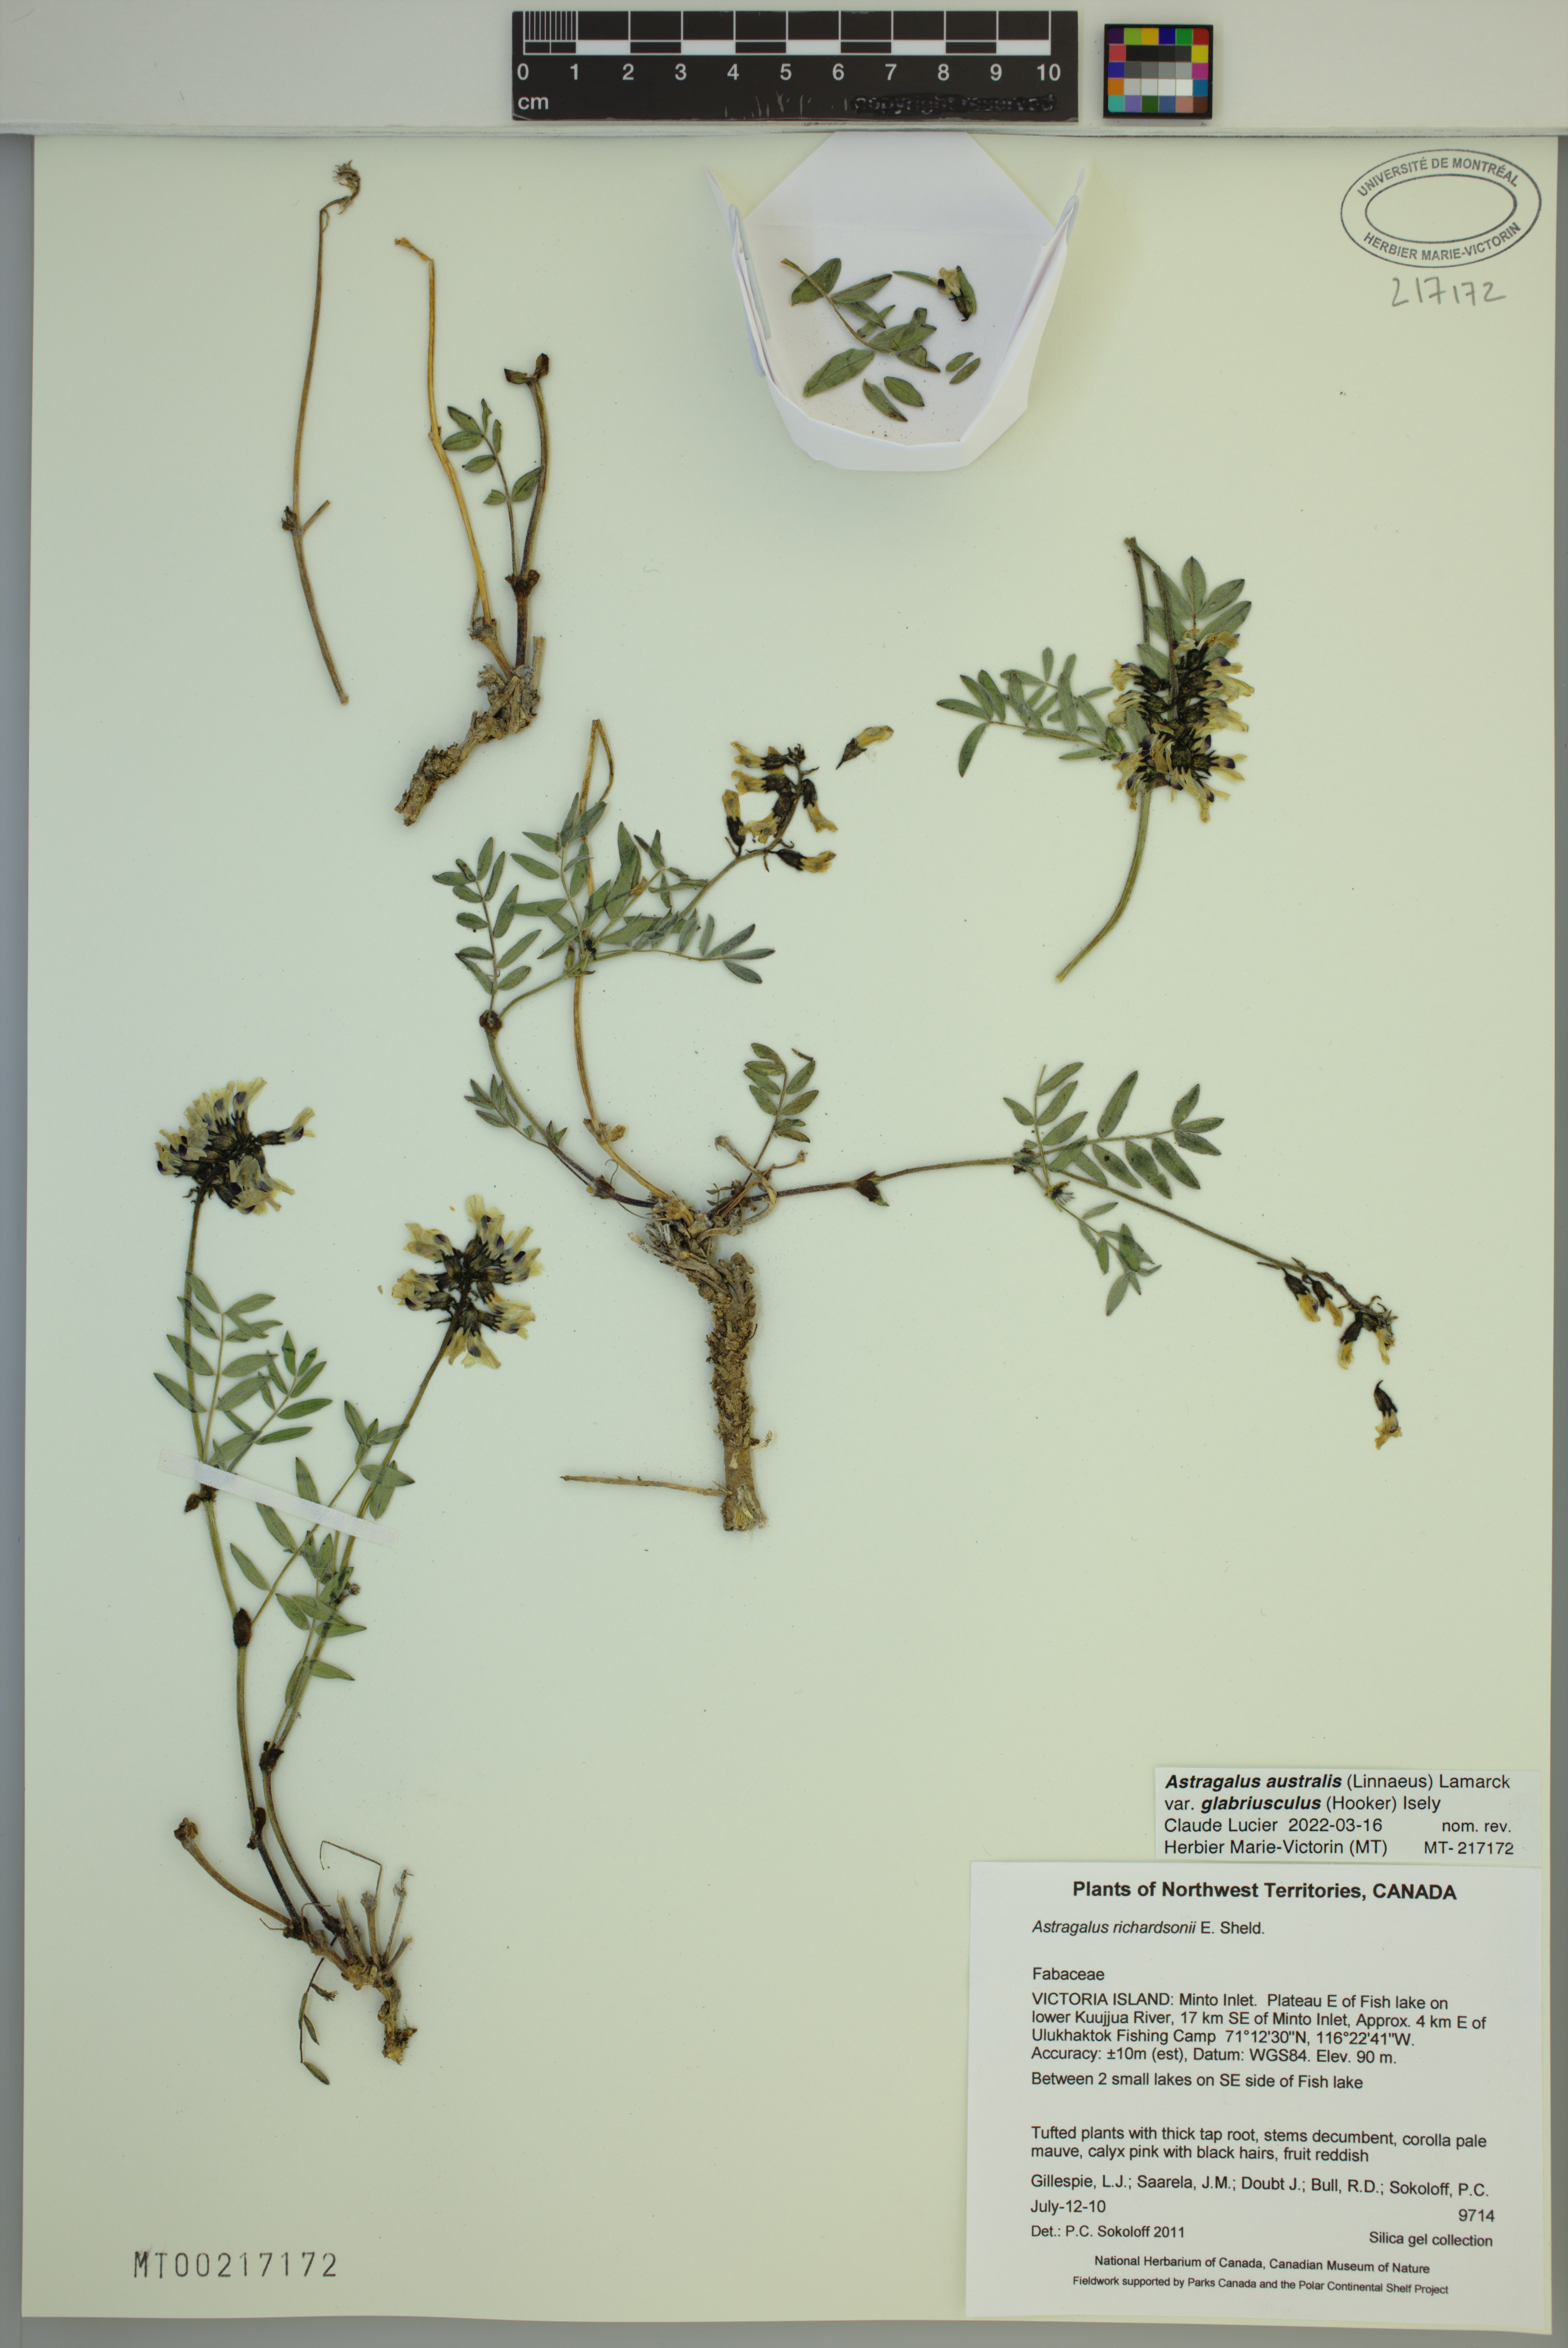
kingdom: Plantae
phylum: Tracheophyta
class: Magnoliopsida
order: Fabales
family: Fabaceae
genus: Astragalus
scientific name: Astragalus aboriginorum
